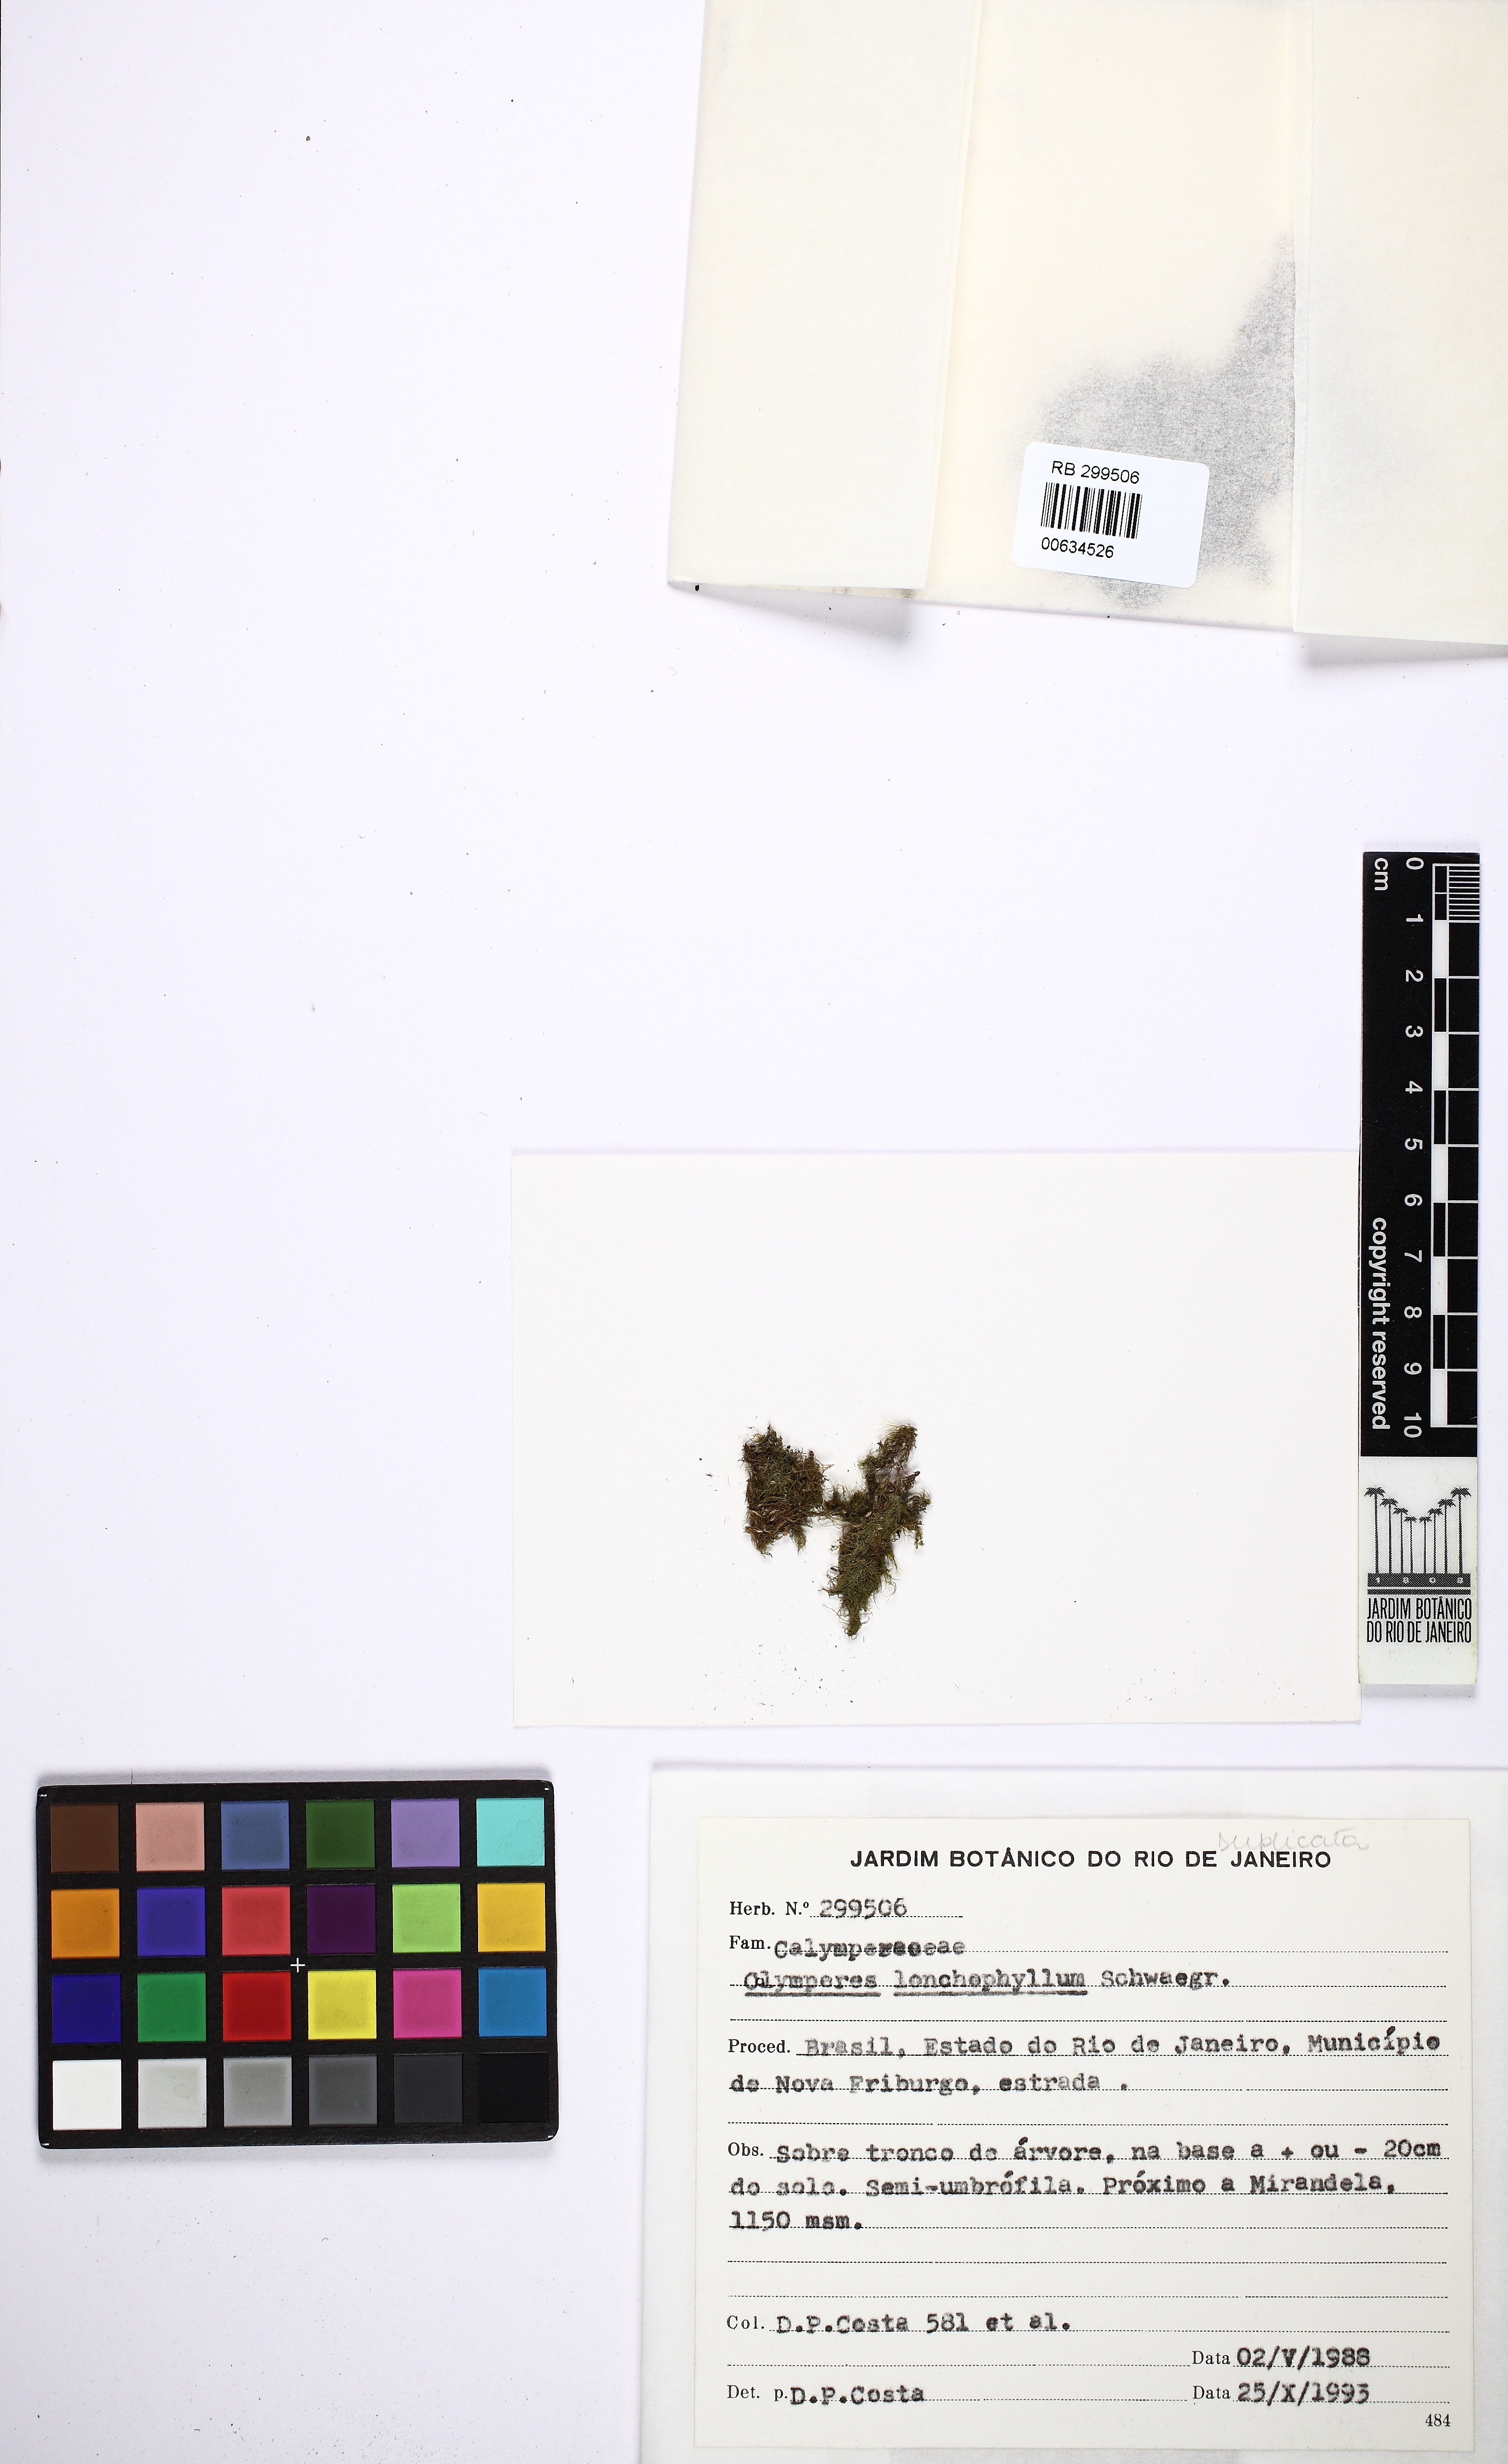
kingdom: Plantae
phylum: Bryophyta
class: Bryopsida
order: Dicranales
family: Calymperaceae
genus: Calymperes
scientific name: Calymperes lonchophyllum
